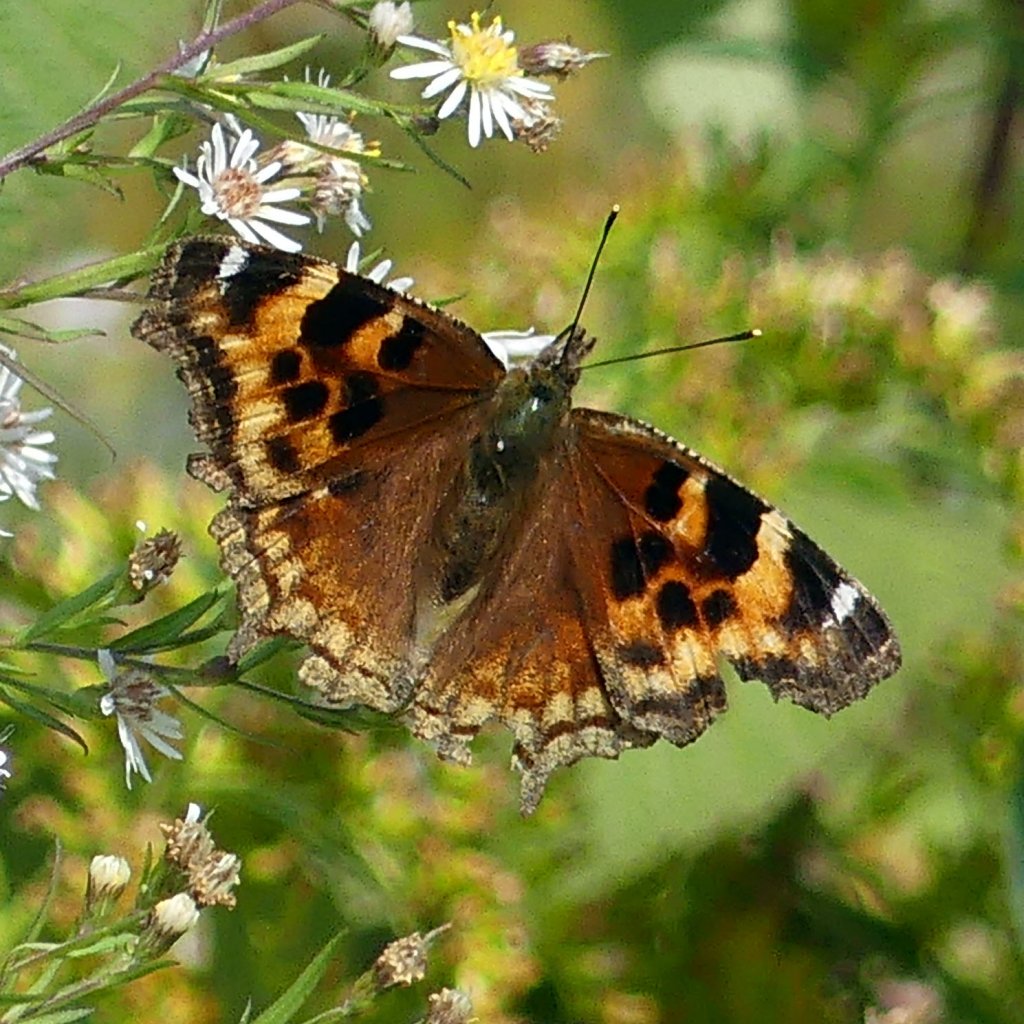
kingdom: Animalia
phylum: Arthropoda
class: Insecta
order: Lepidoptera
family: Nymphalidae
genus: Polygonia
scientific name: Polygonia vaualbum
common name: Compton Tortoiseshell
